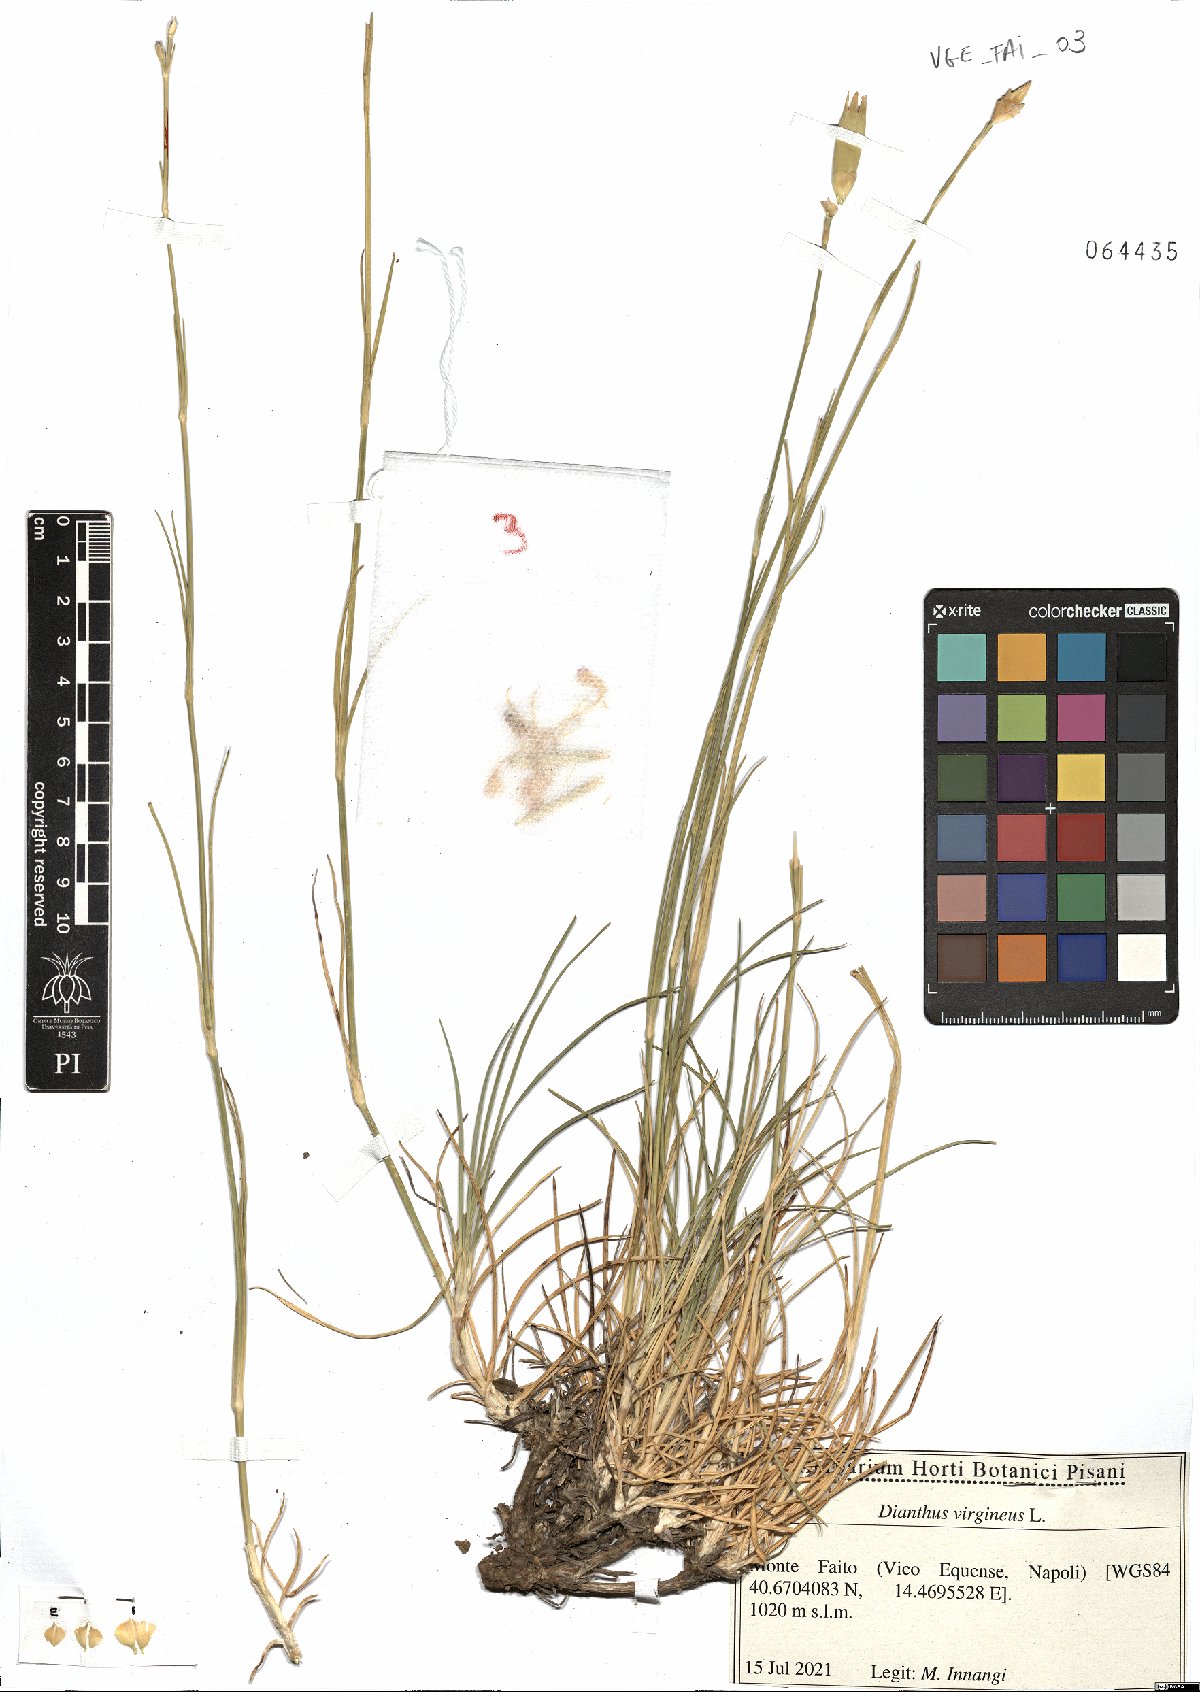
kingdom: Plantae
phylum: Tracheophyta
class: Magnoliopsida
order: Caryophyllales
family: Caryophyllaceae
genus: Dianthus
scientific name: Dianthus virgineus
